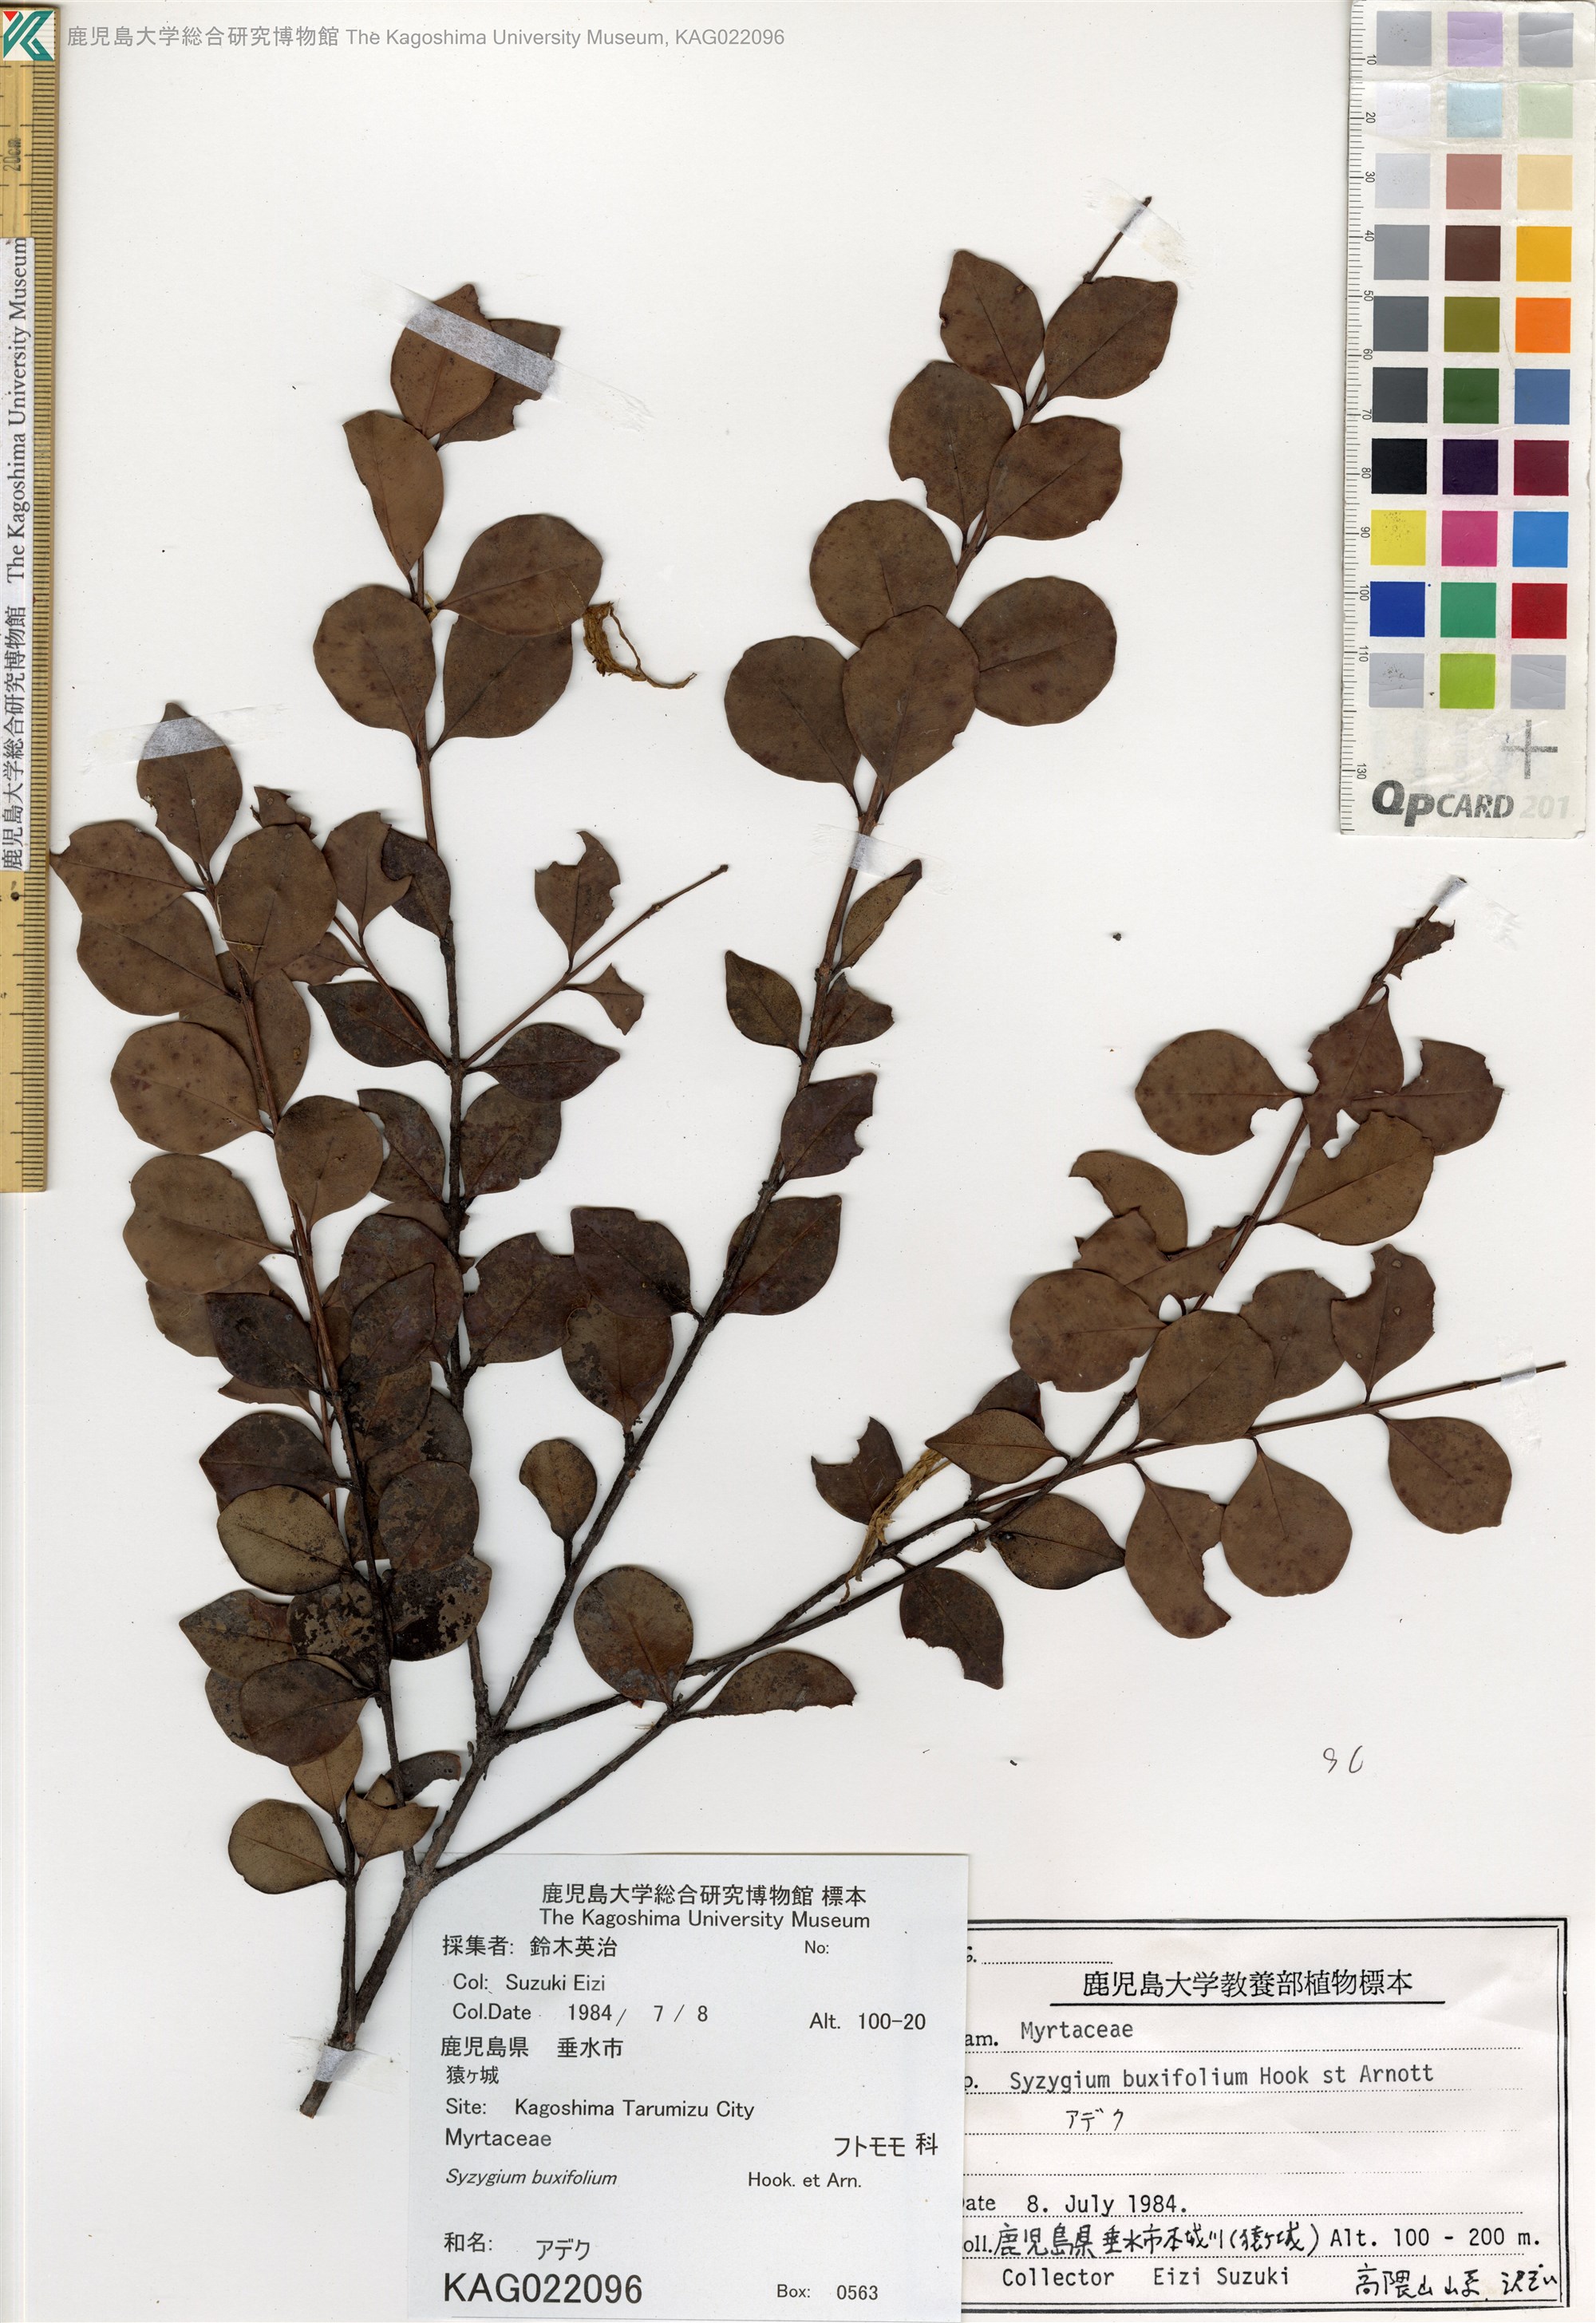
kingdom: Plantae
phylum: Tracheophyta
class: Magnoliopsida
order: Myrtales
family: Myrtaceae
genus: Syzygium
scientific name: Syzygium buxifolium
